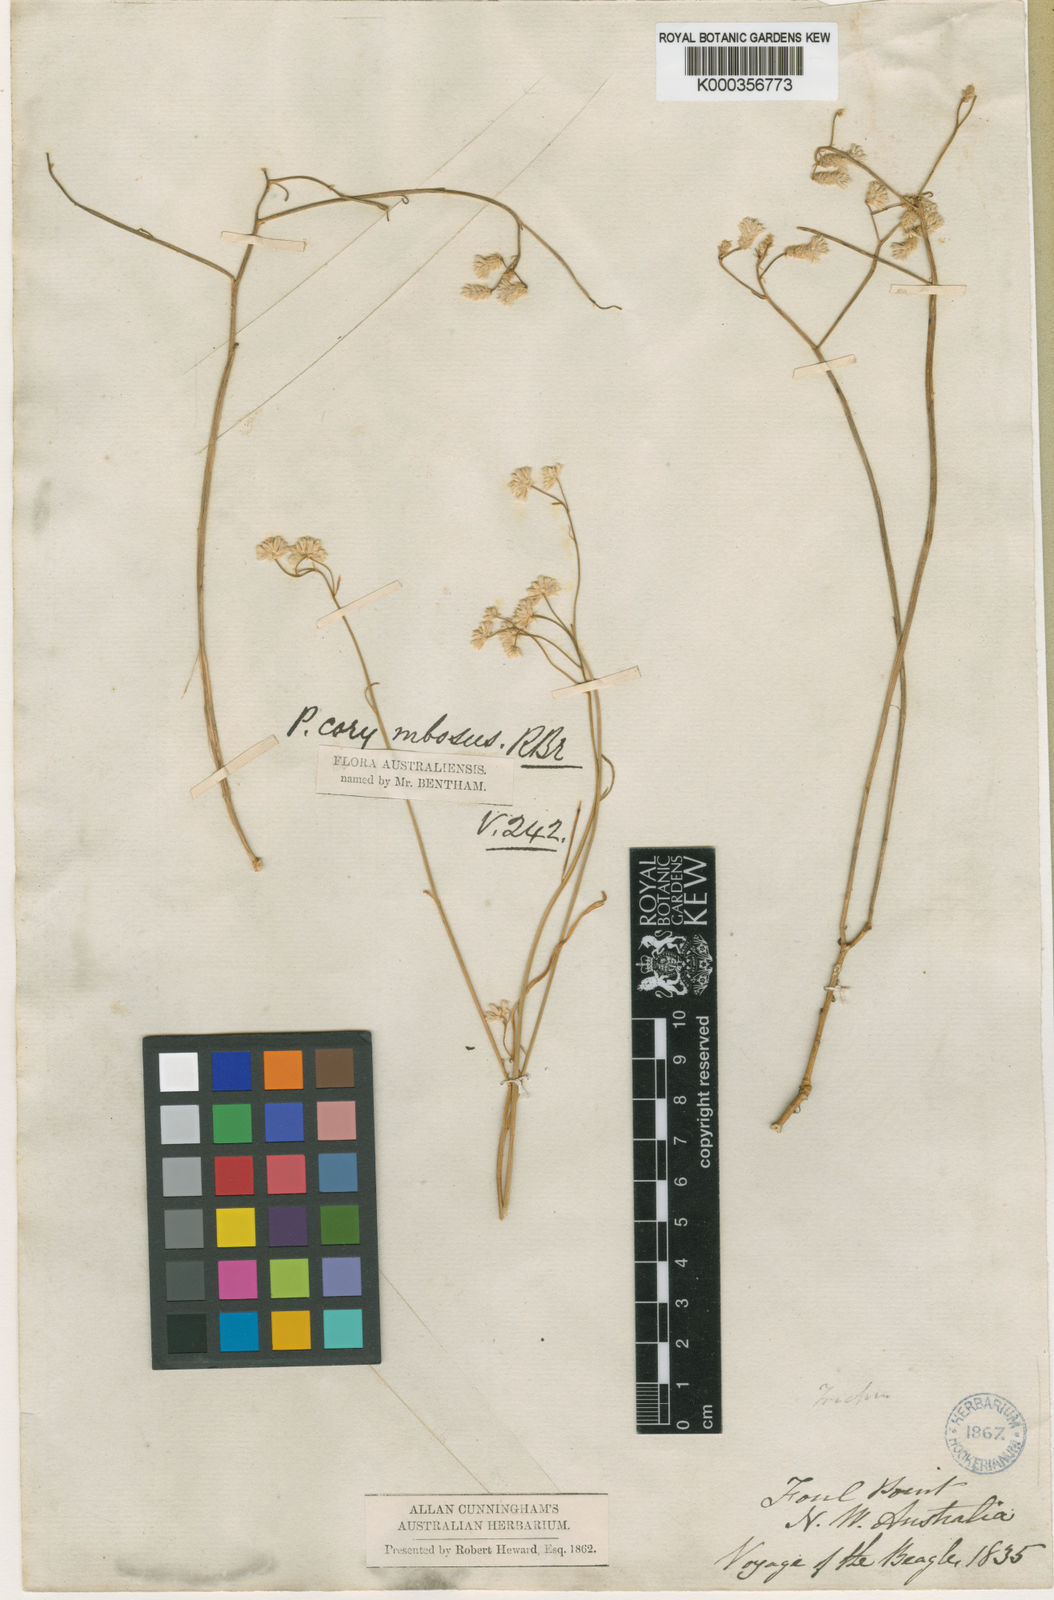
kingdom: Plantae
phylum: Tracheophyta
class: Magnoliopsida
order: Caryophyllales
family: Amaranthaceae
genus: Ptilotus
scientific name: Ptilotus corymbosus
